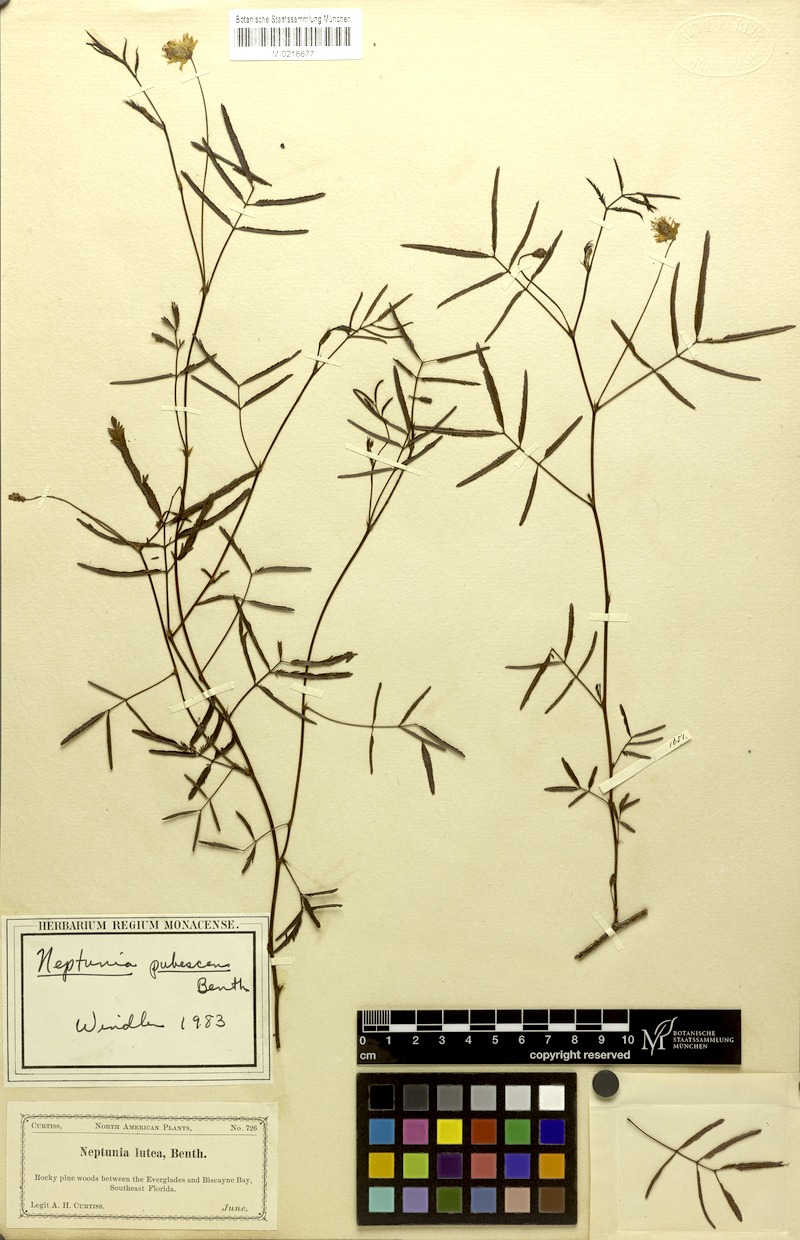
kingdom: Plantae
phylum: Tracheophyta
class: Magnoliopsida
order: Fabales
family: Fabaceae
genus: Neptunia
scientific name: Neptunia pubescens
